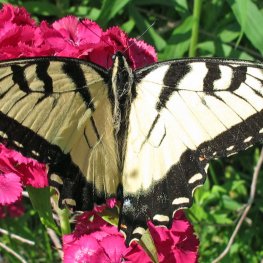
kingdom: Animalia
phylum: Arthropoda
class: Insecta
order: Lepidoptera
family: Papilionidae
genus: Pterourus
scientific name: Pterourus glaucus
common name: Eastern Tiger Swallowtail
